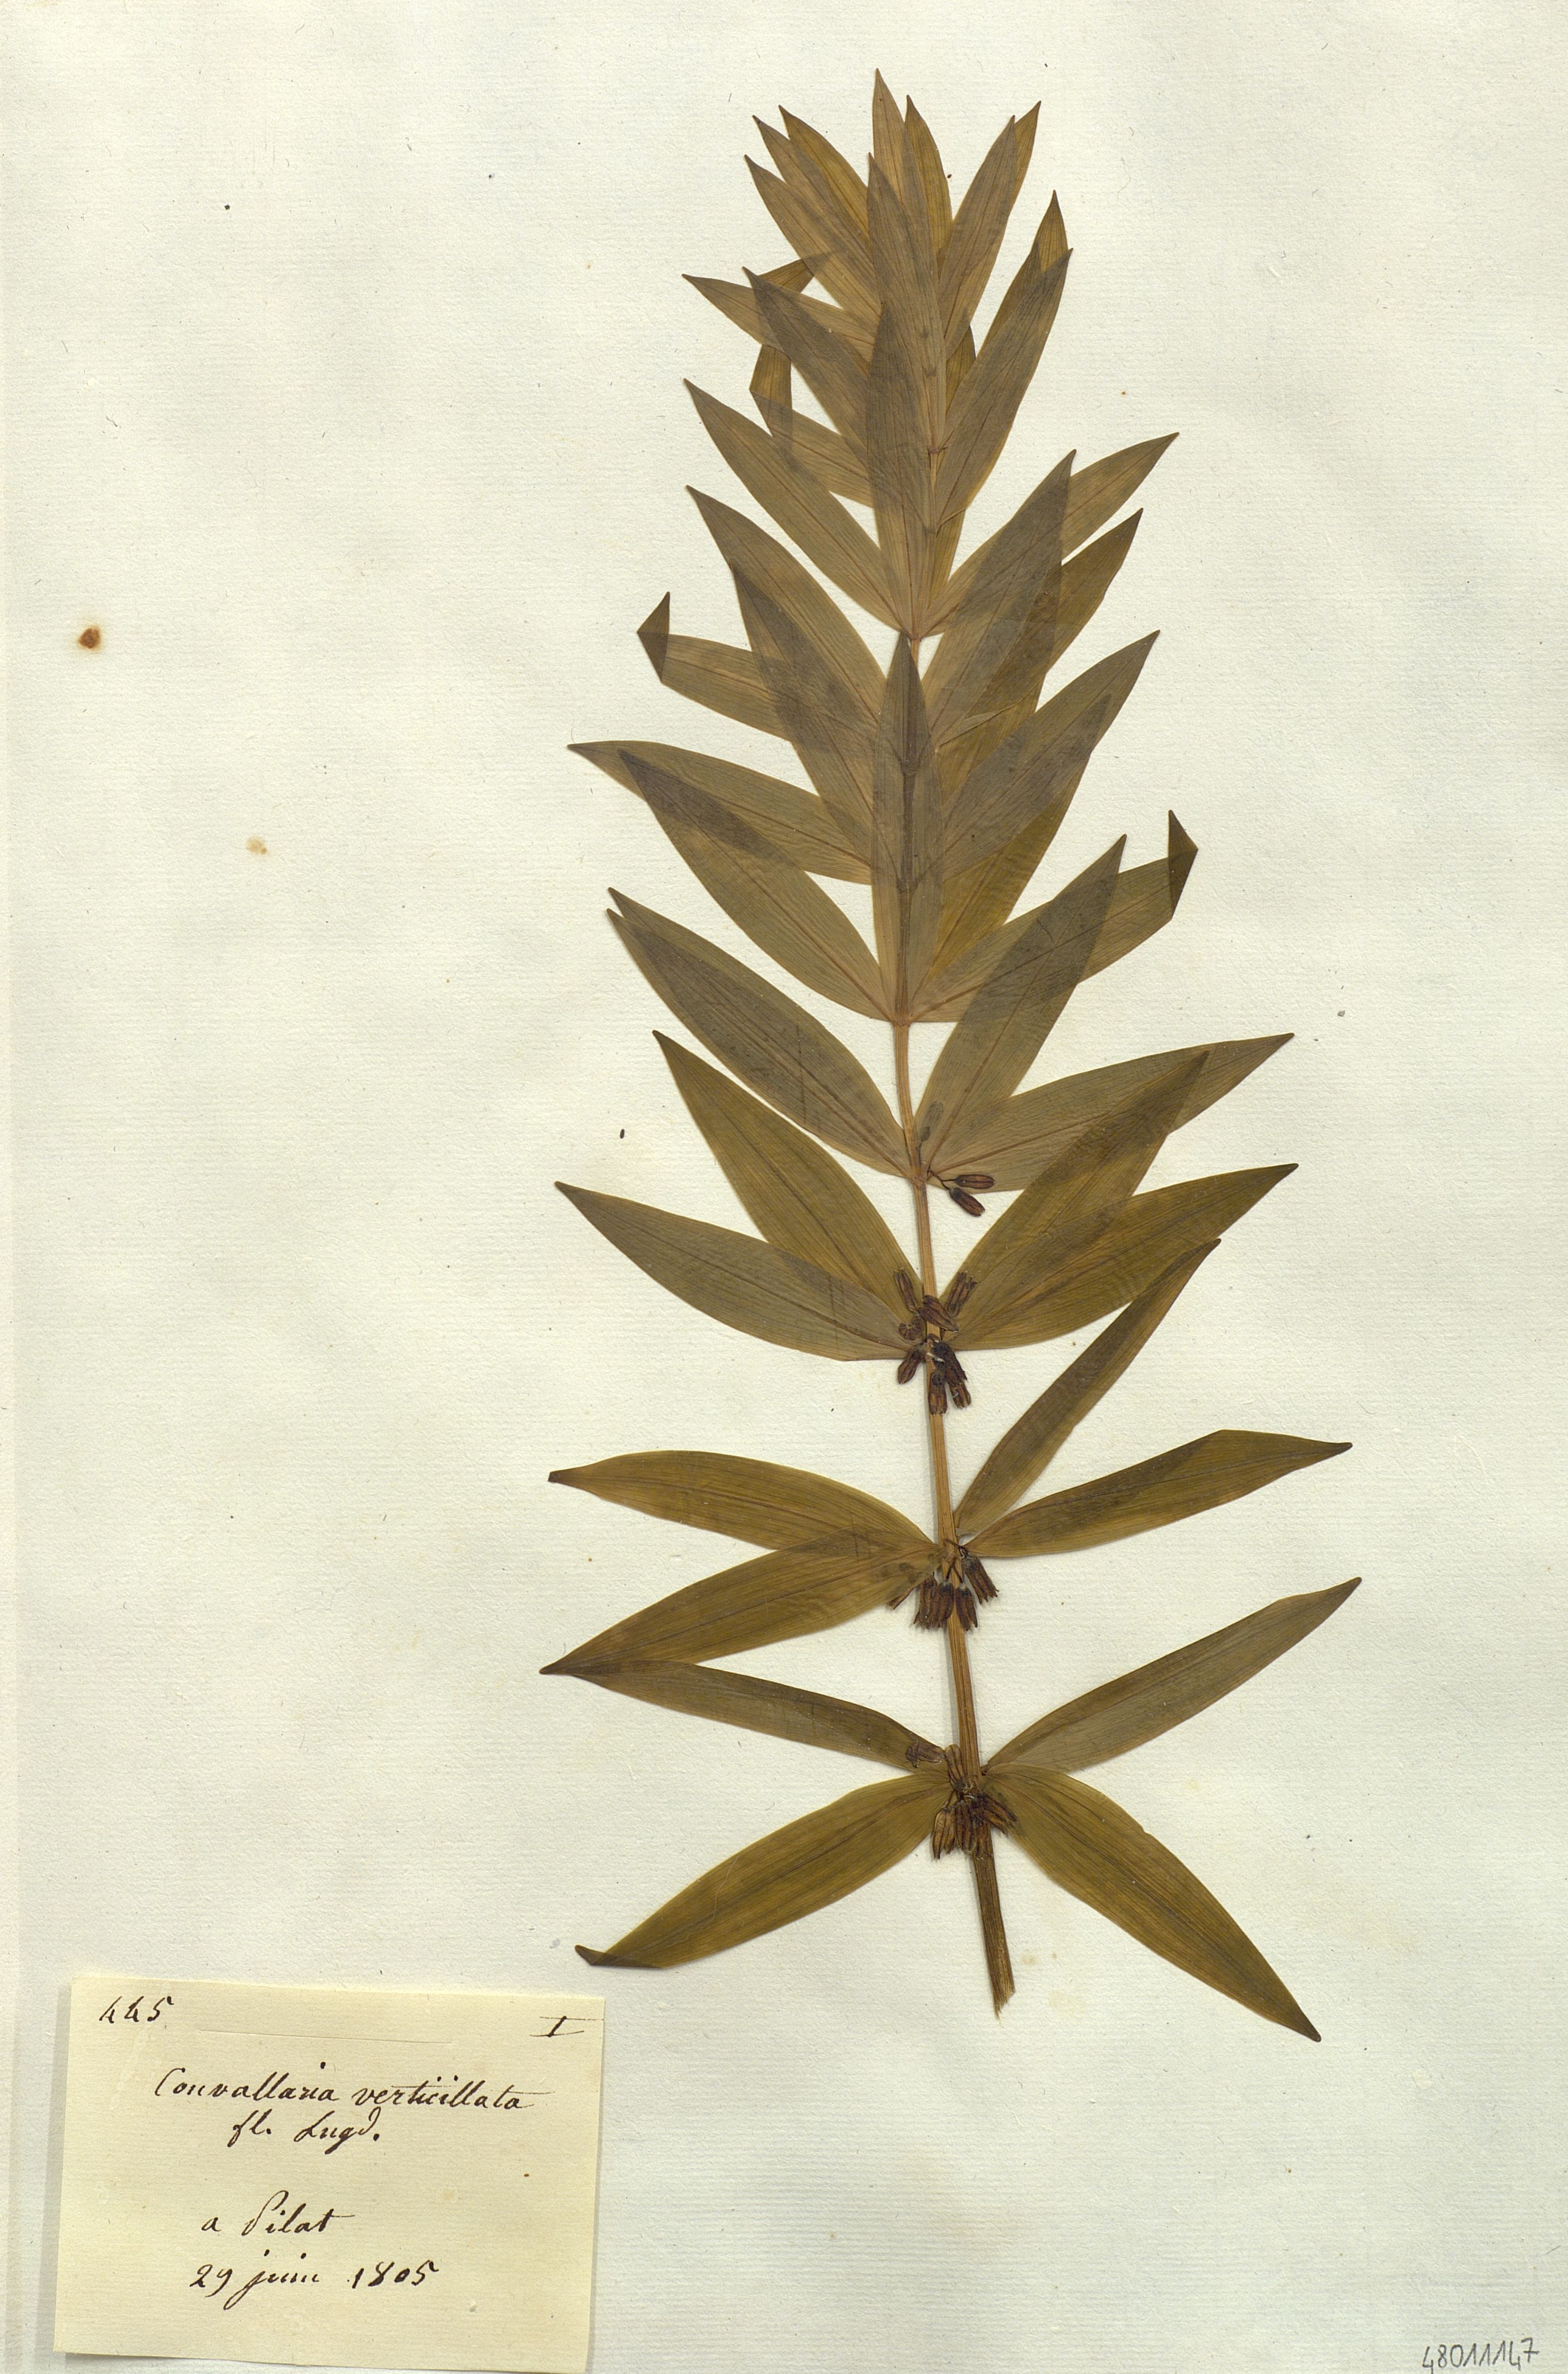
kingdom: Plantae
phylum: Tracheophyta
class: Liliopsida
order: Liliales
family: Liliaceae
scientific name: Liliaceae
